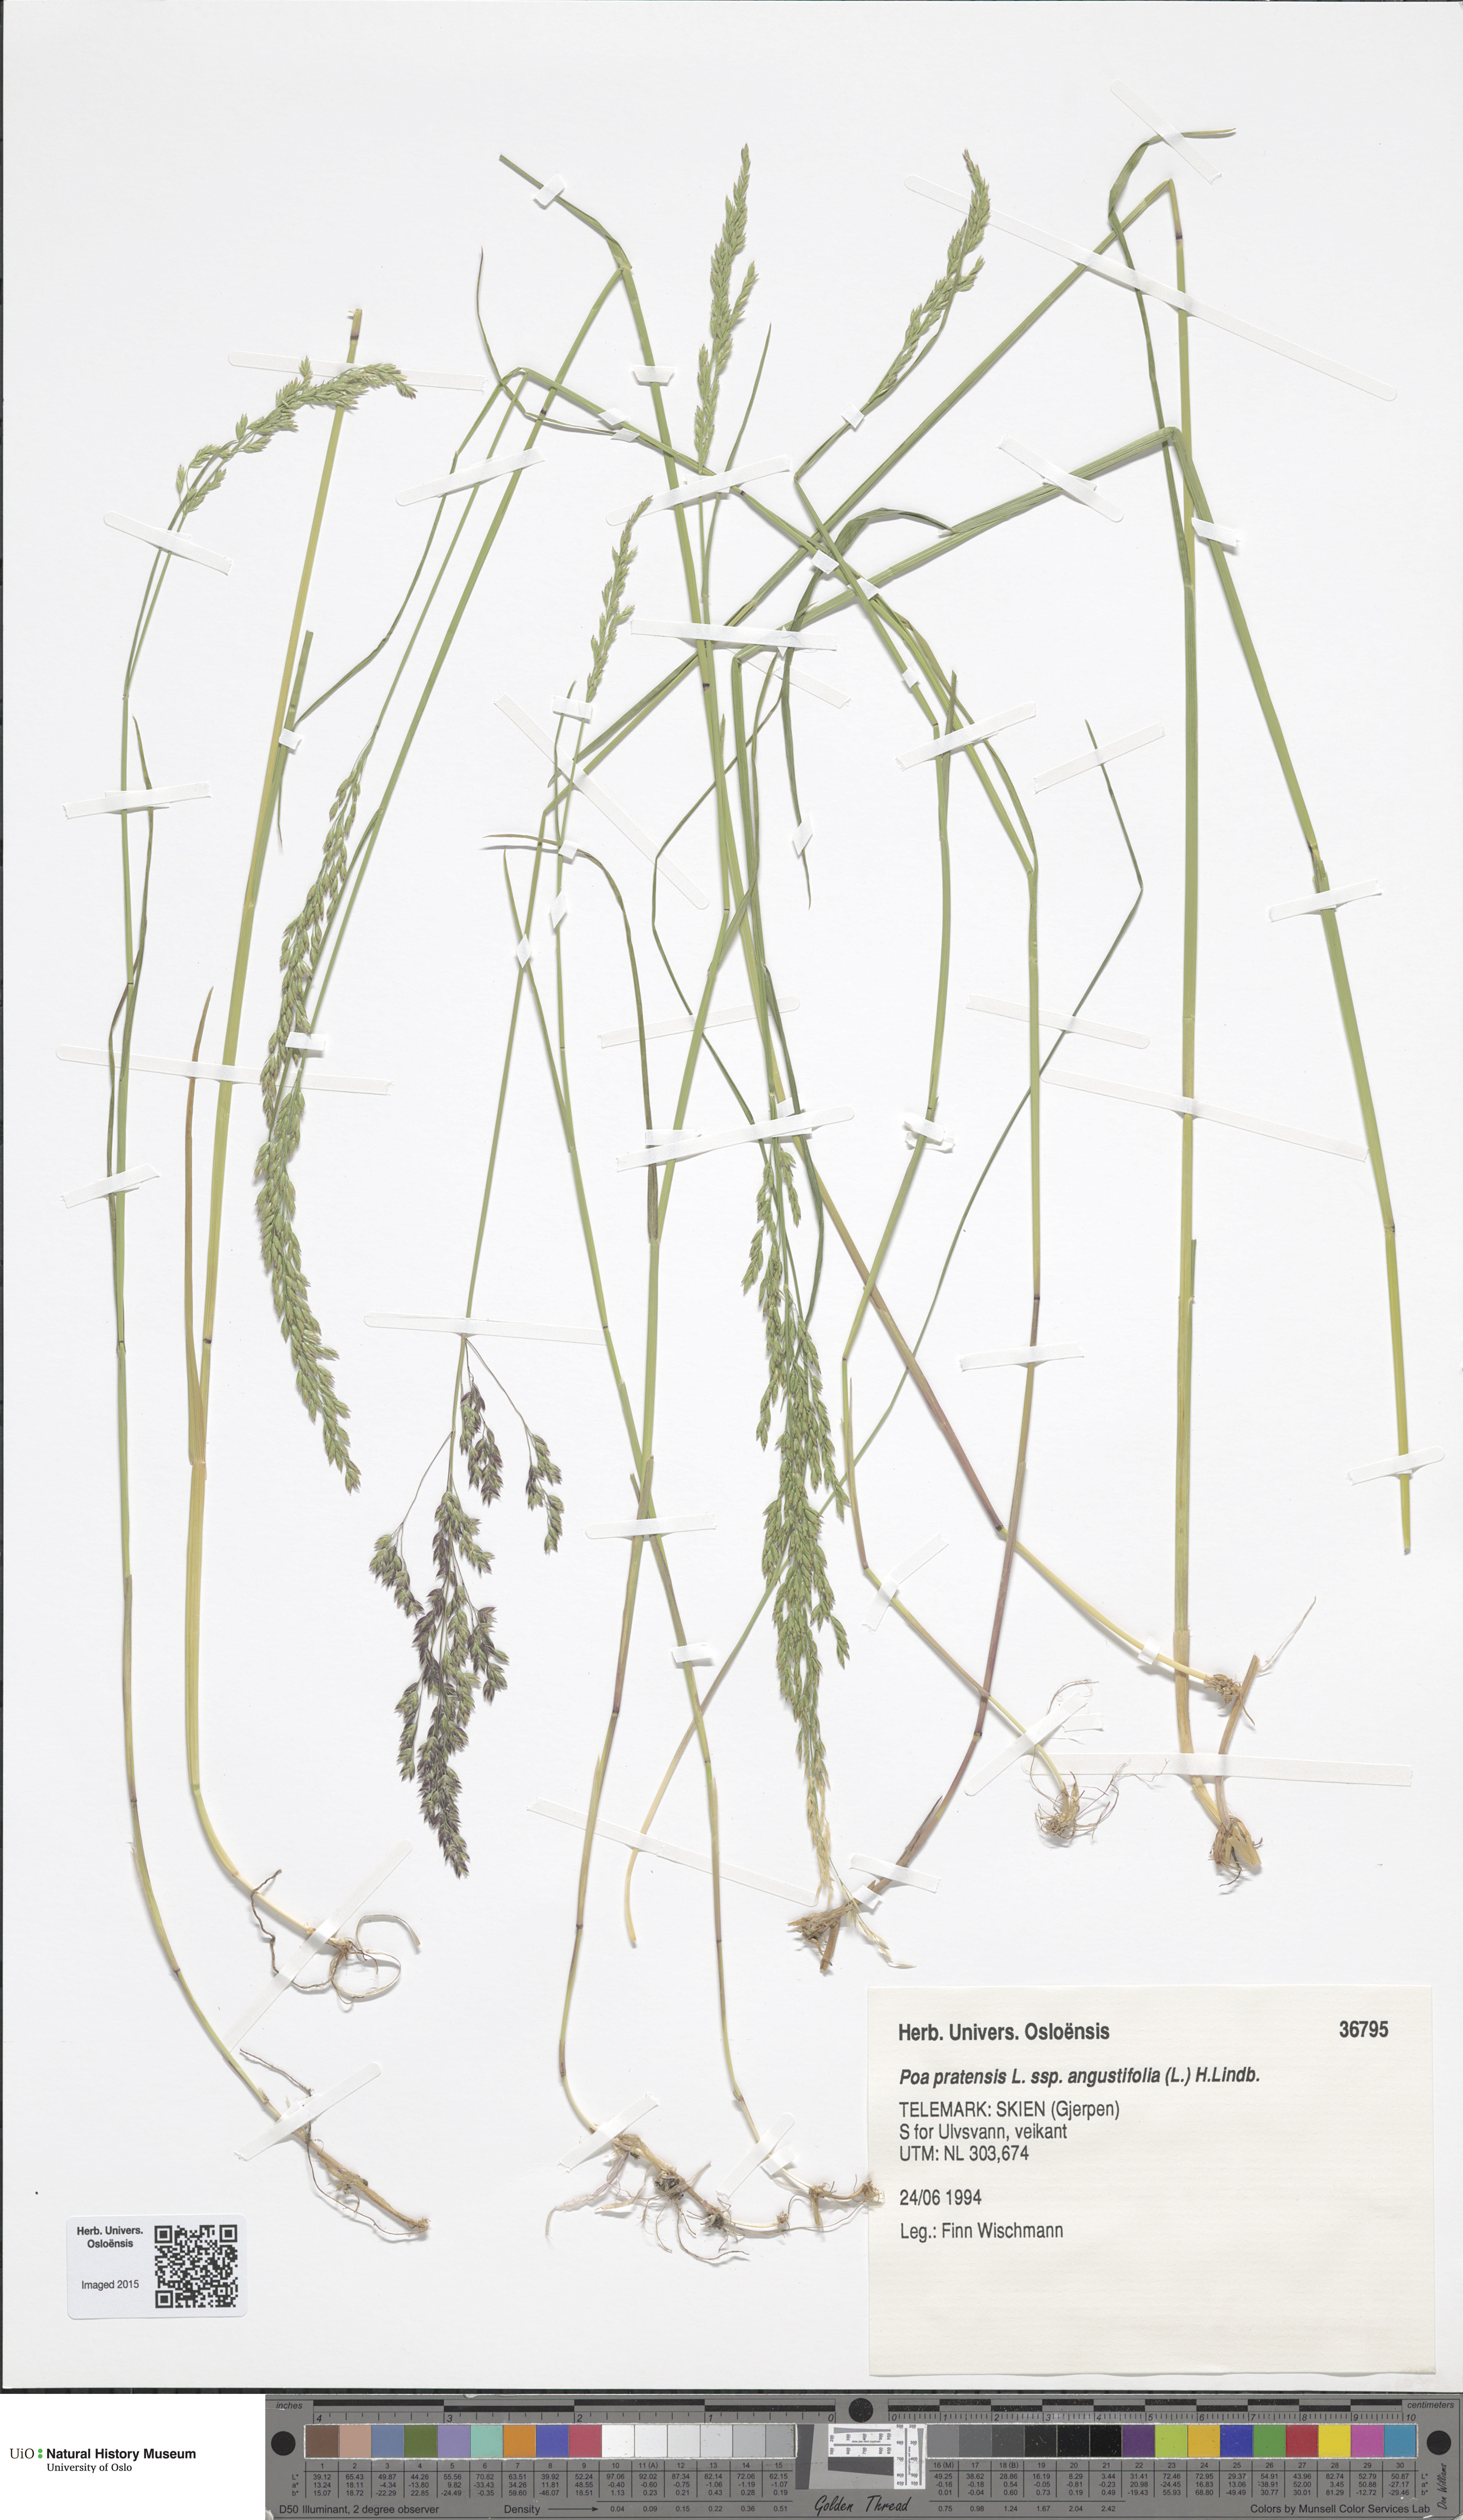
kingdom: Plantae
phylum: Tracheophyta
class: Liliopsida
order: Poales
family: Poaceae
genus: Poa
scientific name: Poa angustifolia
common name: Narrow-leaved meadow-grass
